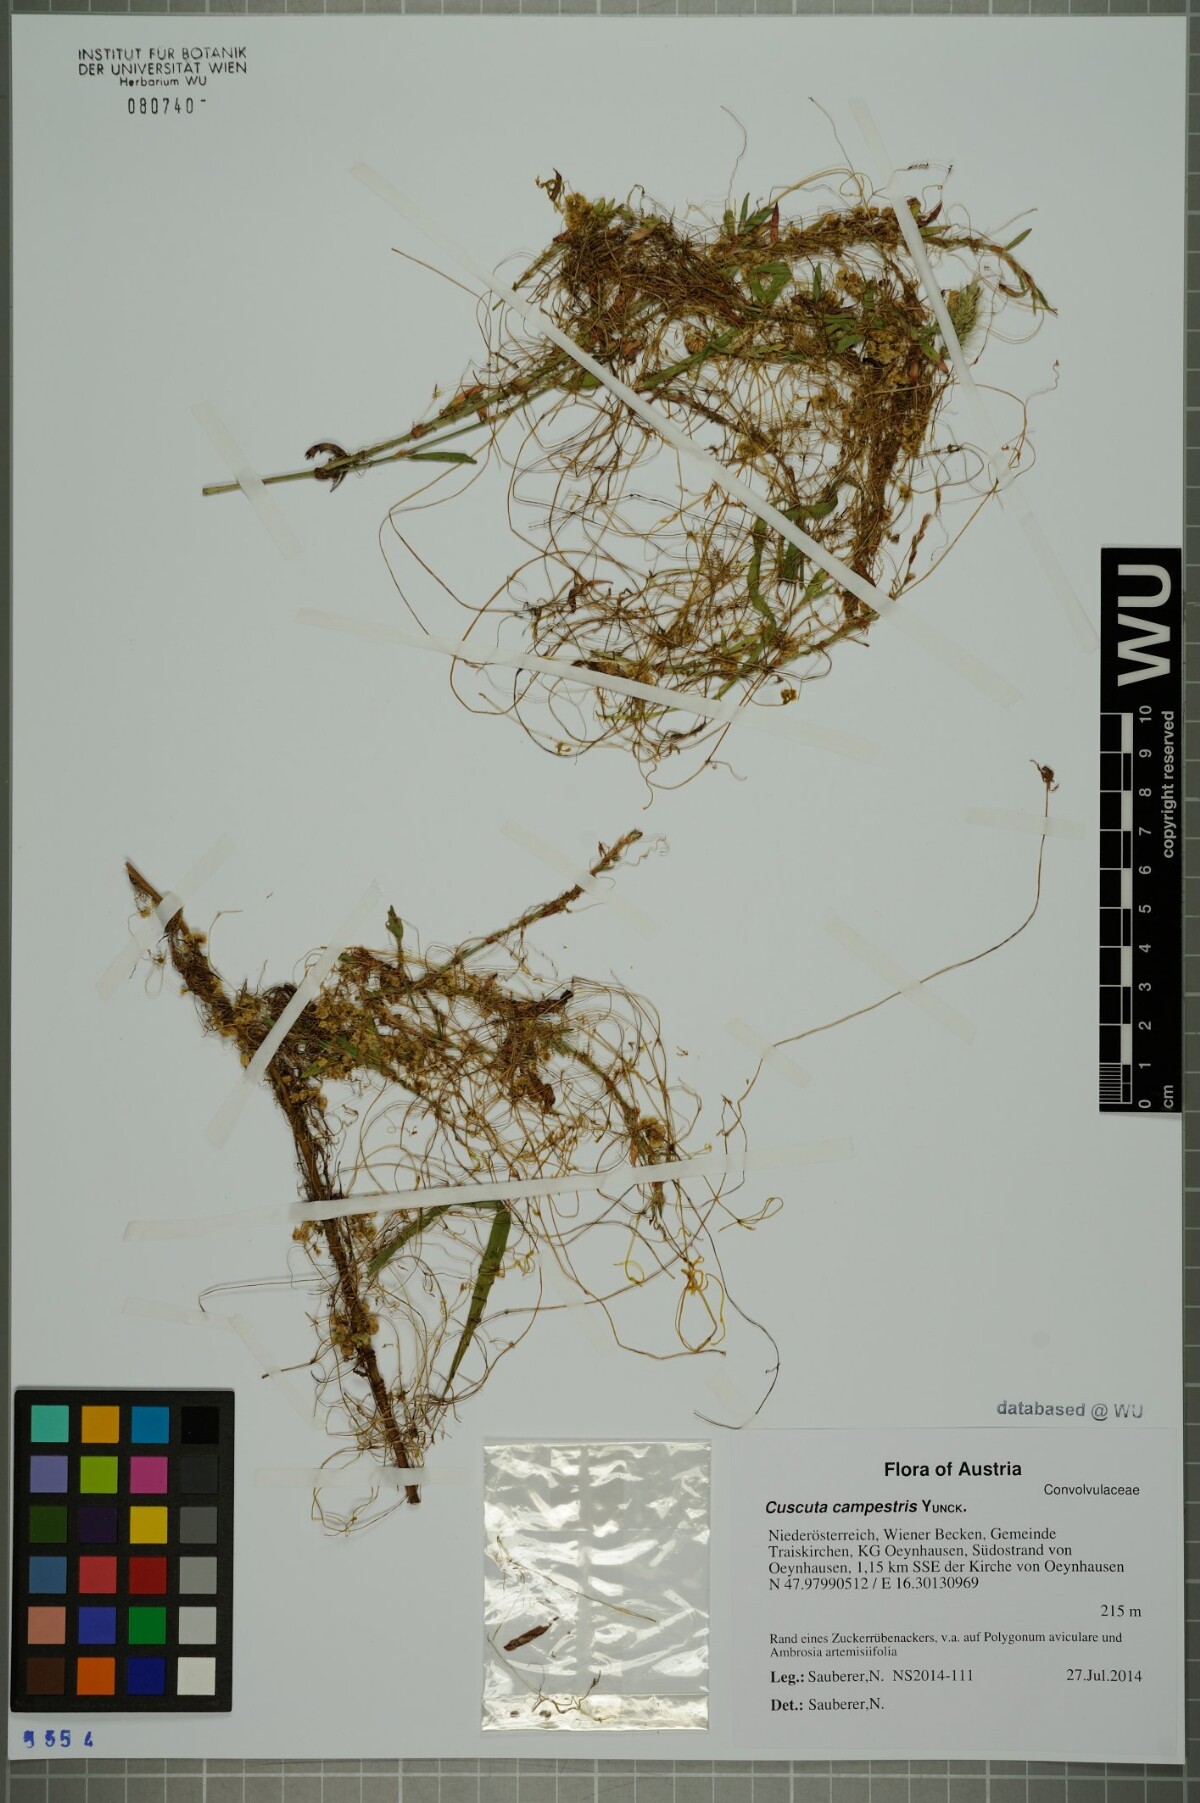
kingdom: Plantae
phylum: Tracheophyta
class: Magnoliopsida
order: Solanales
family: Convolvulaceae
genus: Cuscuta
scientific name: Cuscuta campestris
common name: Yellow dodder
